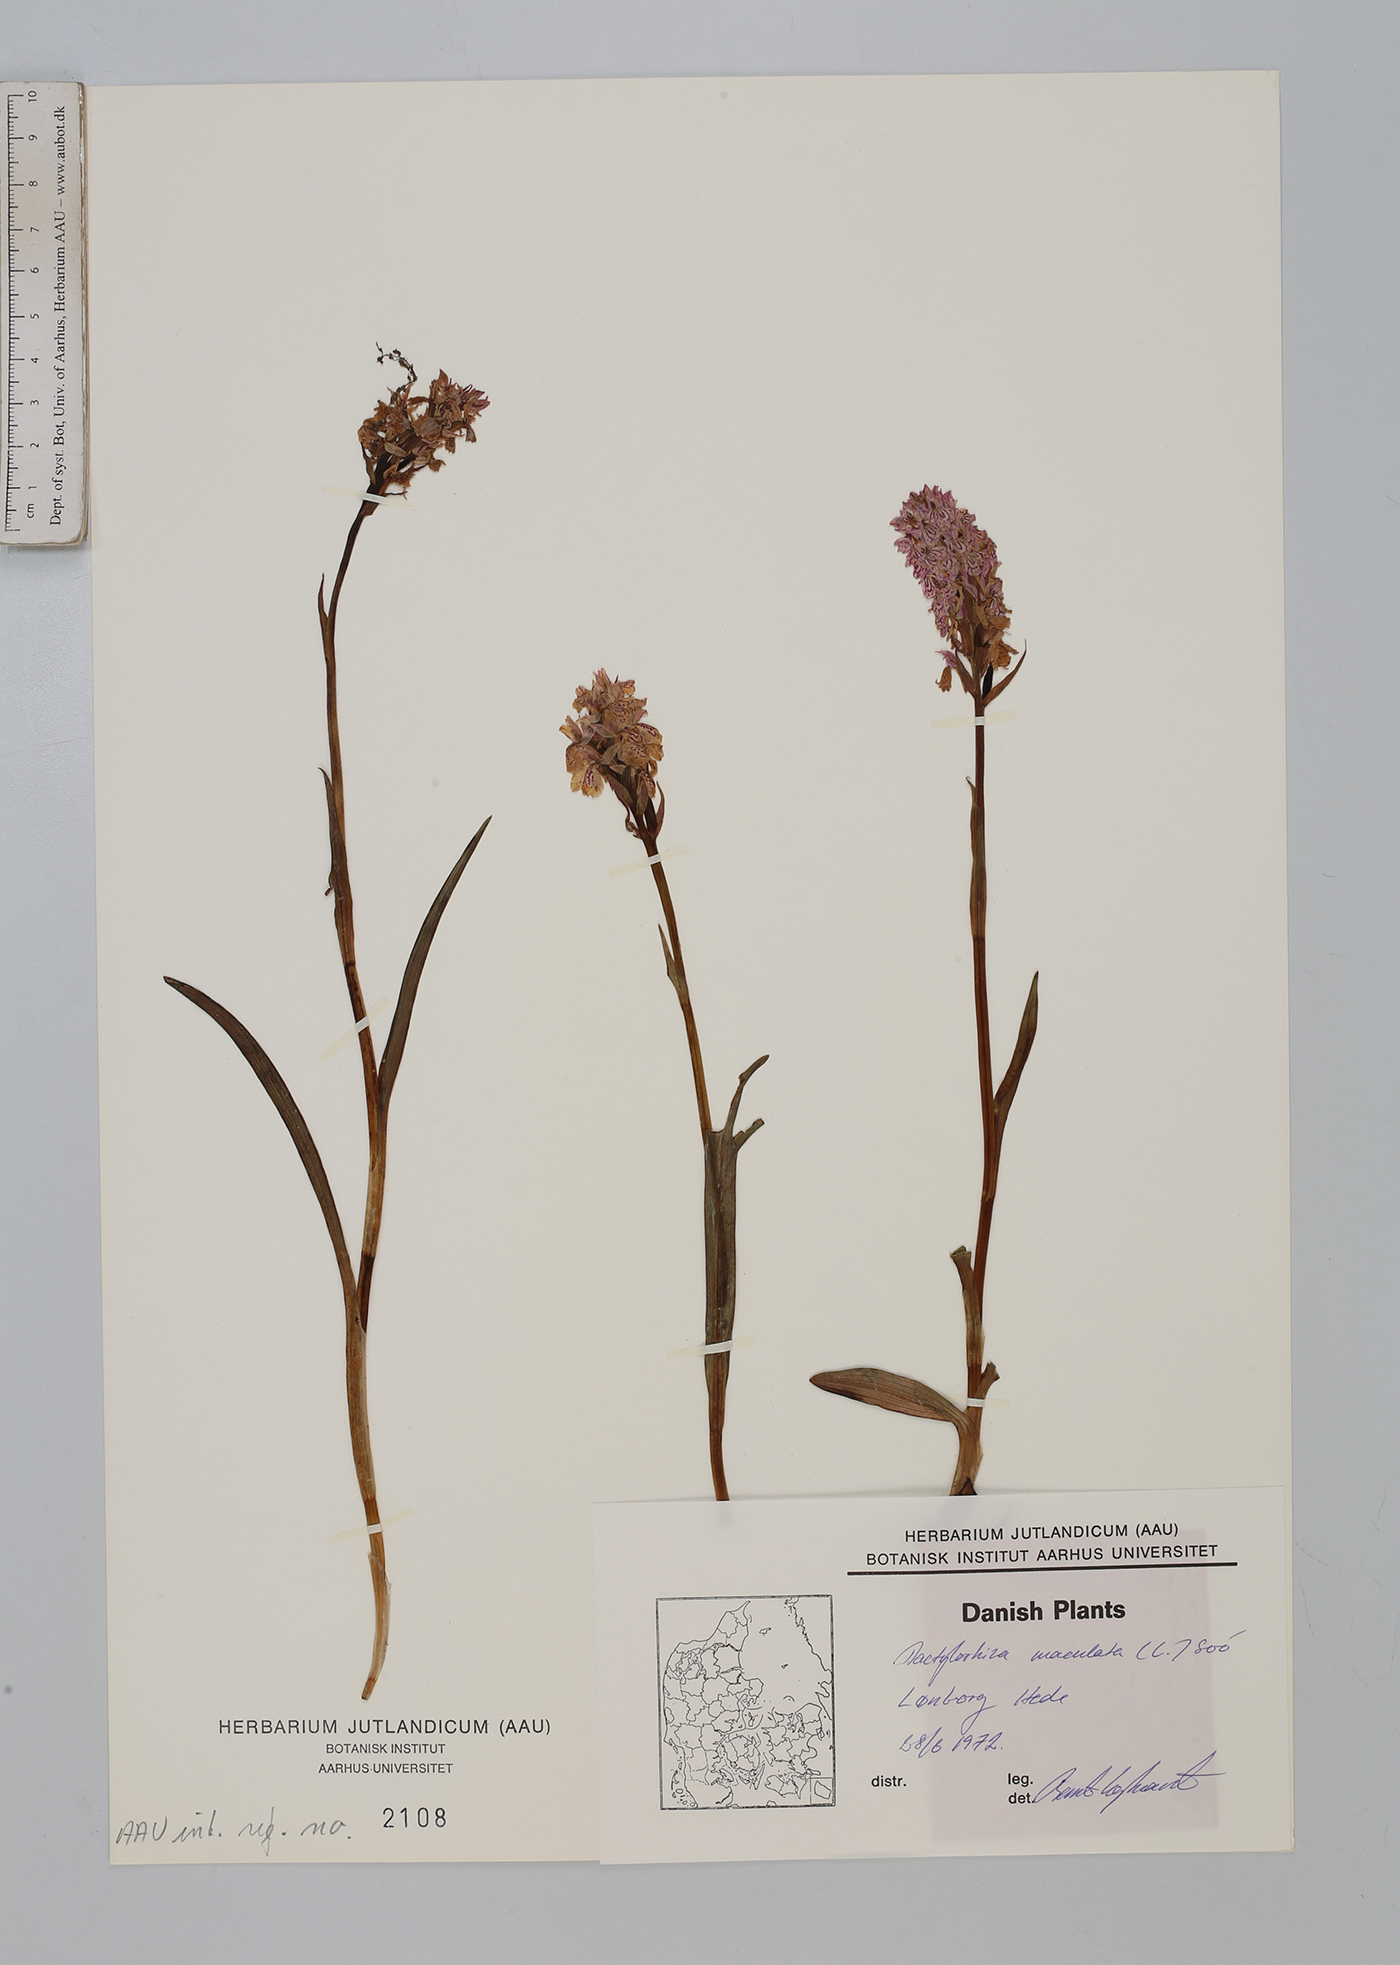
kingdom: Plantae
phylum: Tracheophyta
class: Liliopsida
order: Asparagales
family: Orchidaceae
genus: Dactylorhiza
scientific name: Dactylorhiza maculata
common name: Heath spotted-orchid
